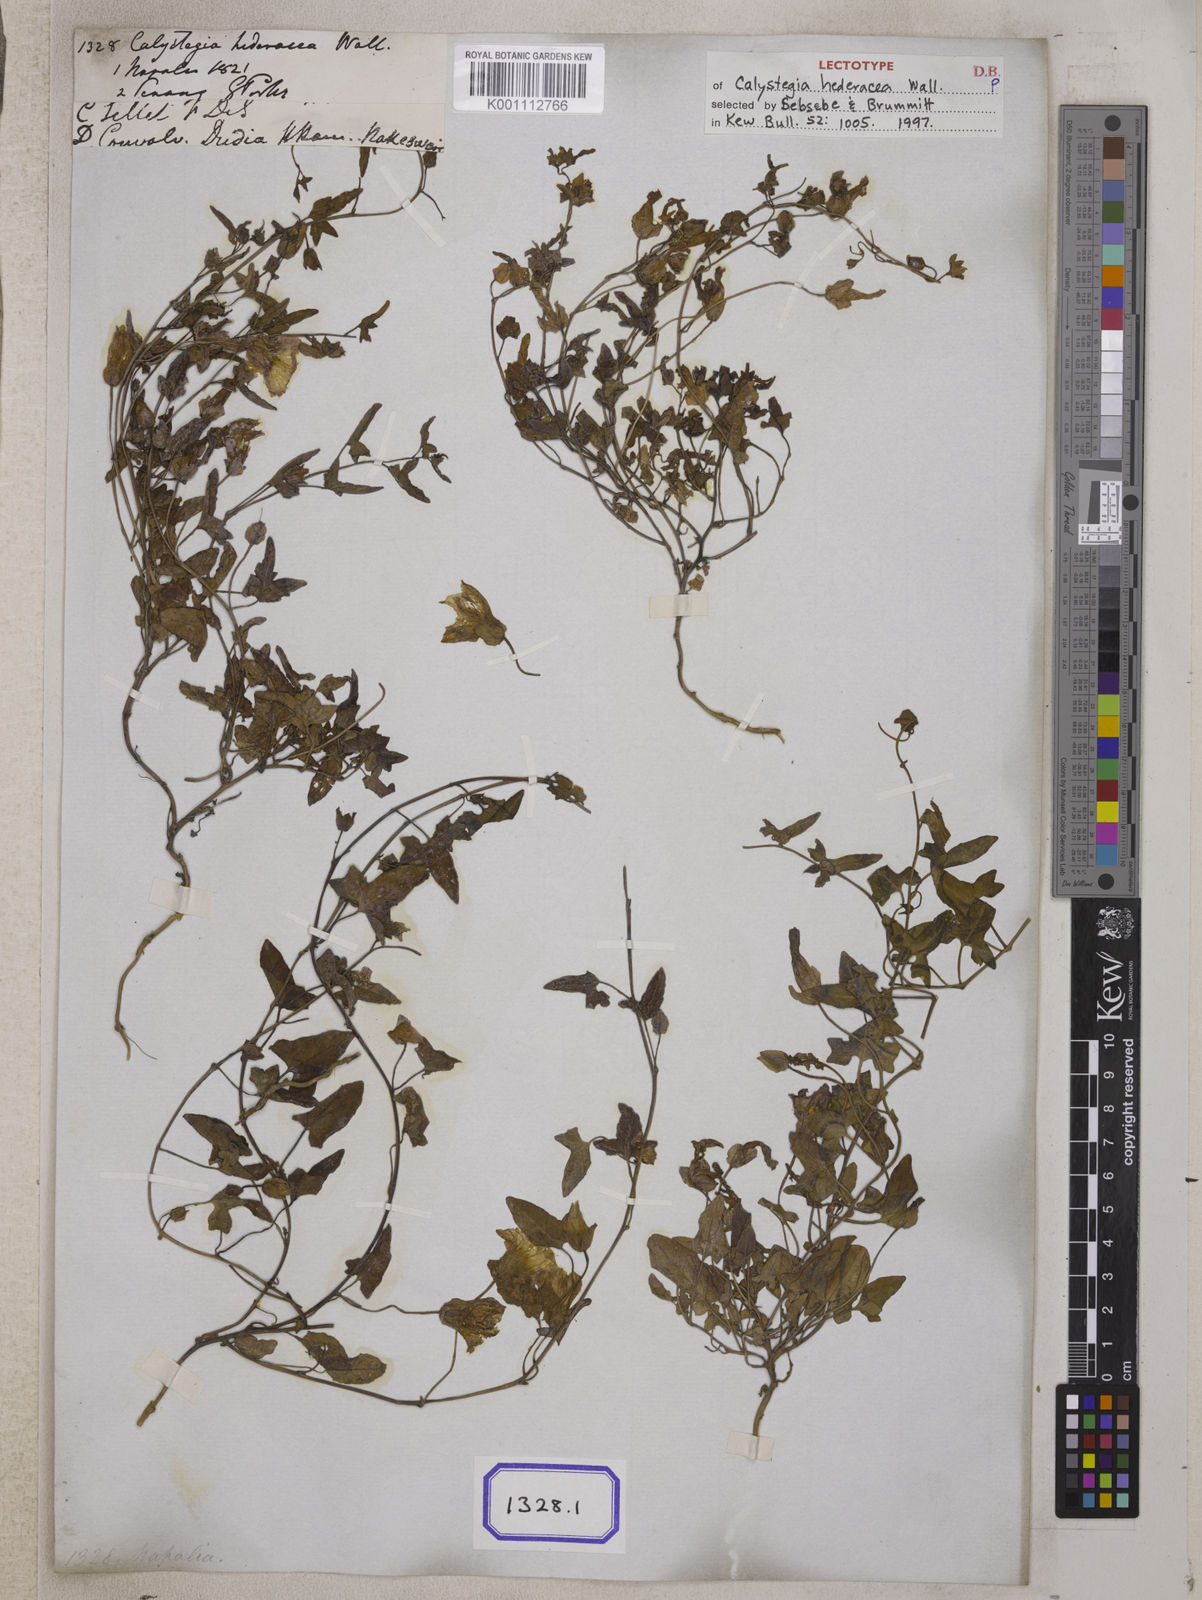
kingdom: Plantae
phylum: Tracheophyta
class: Magnoliopsida
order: Solanales
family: Convolvulaceae
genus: Calystegia
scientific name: Calystegia hederacea
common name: Japanese false bindweed
